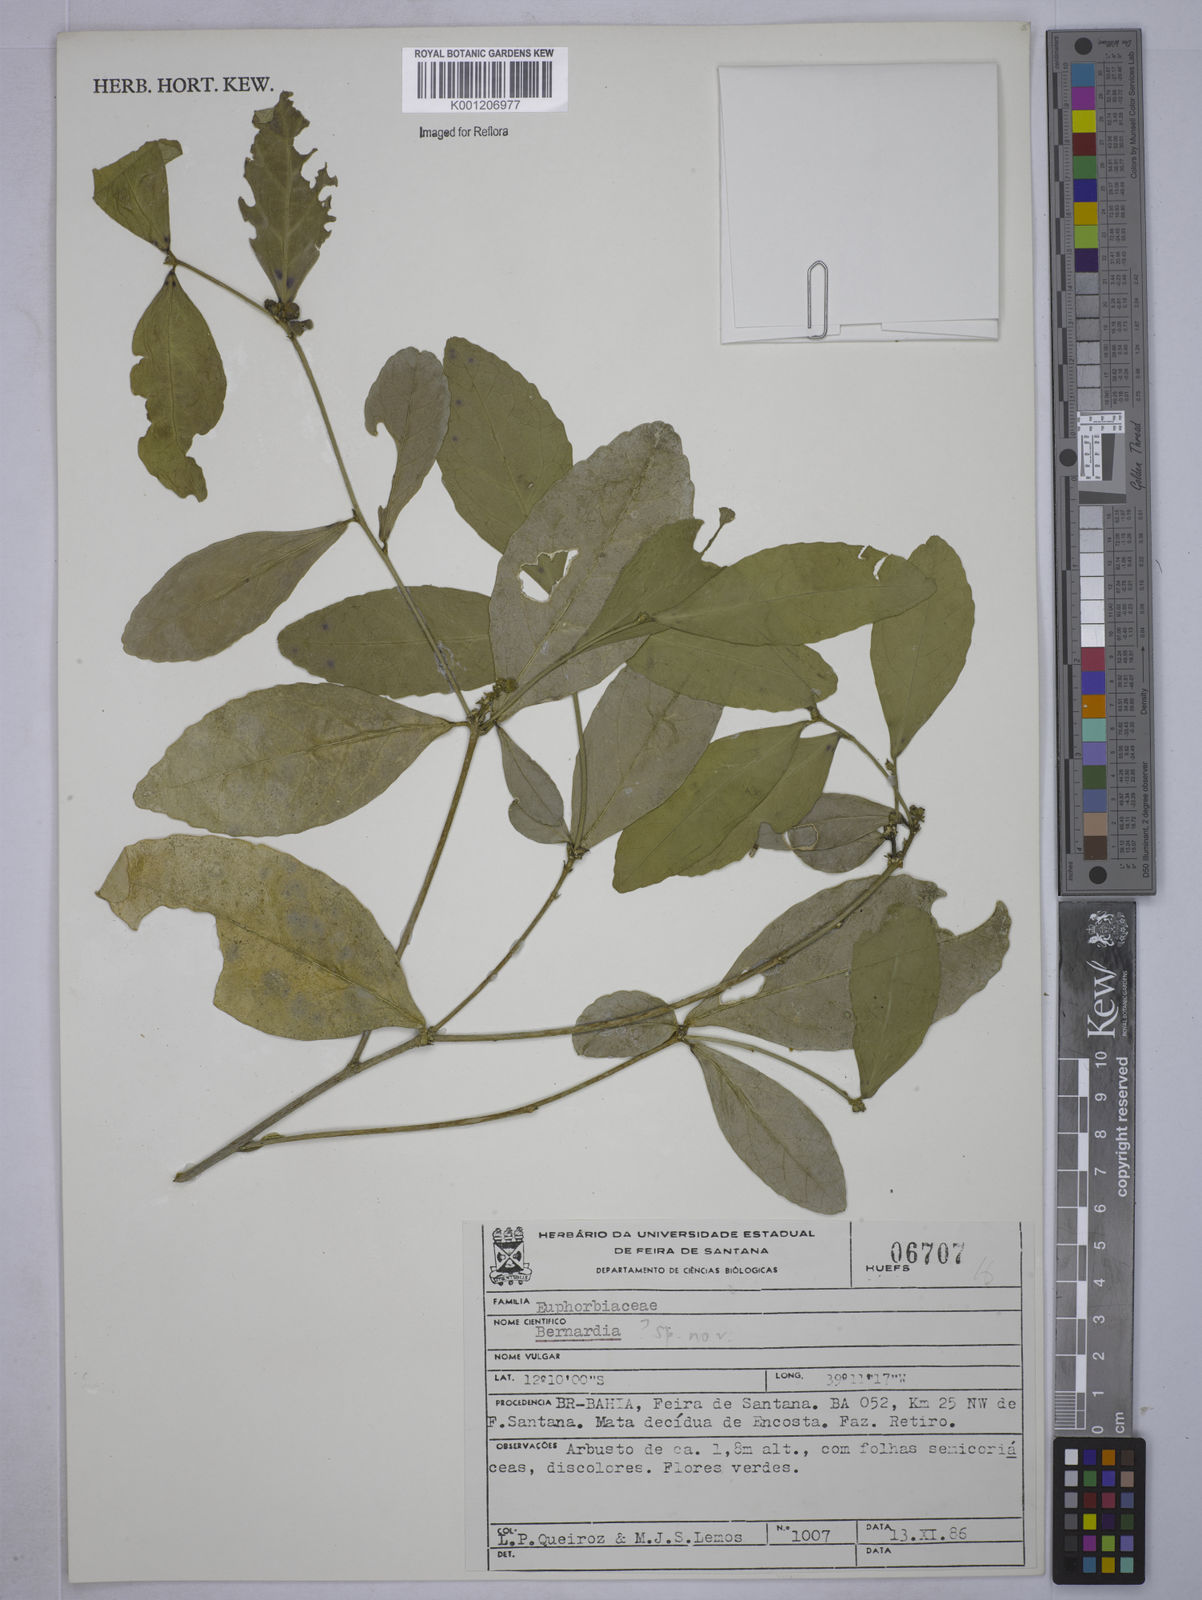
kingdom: Plantae
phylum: Tracheophyta
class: Magnoliopsida
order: Malpighiales
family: Euphorbiaceae
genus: Bernardia
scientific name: Bernardia tamanduana
